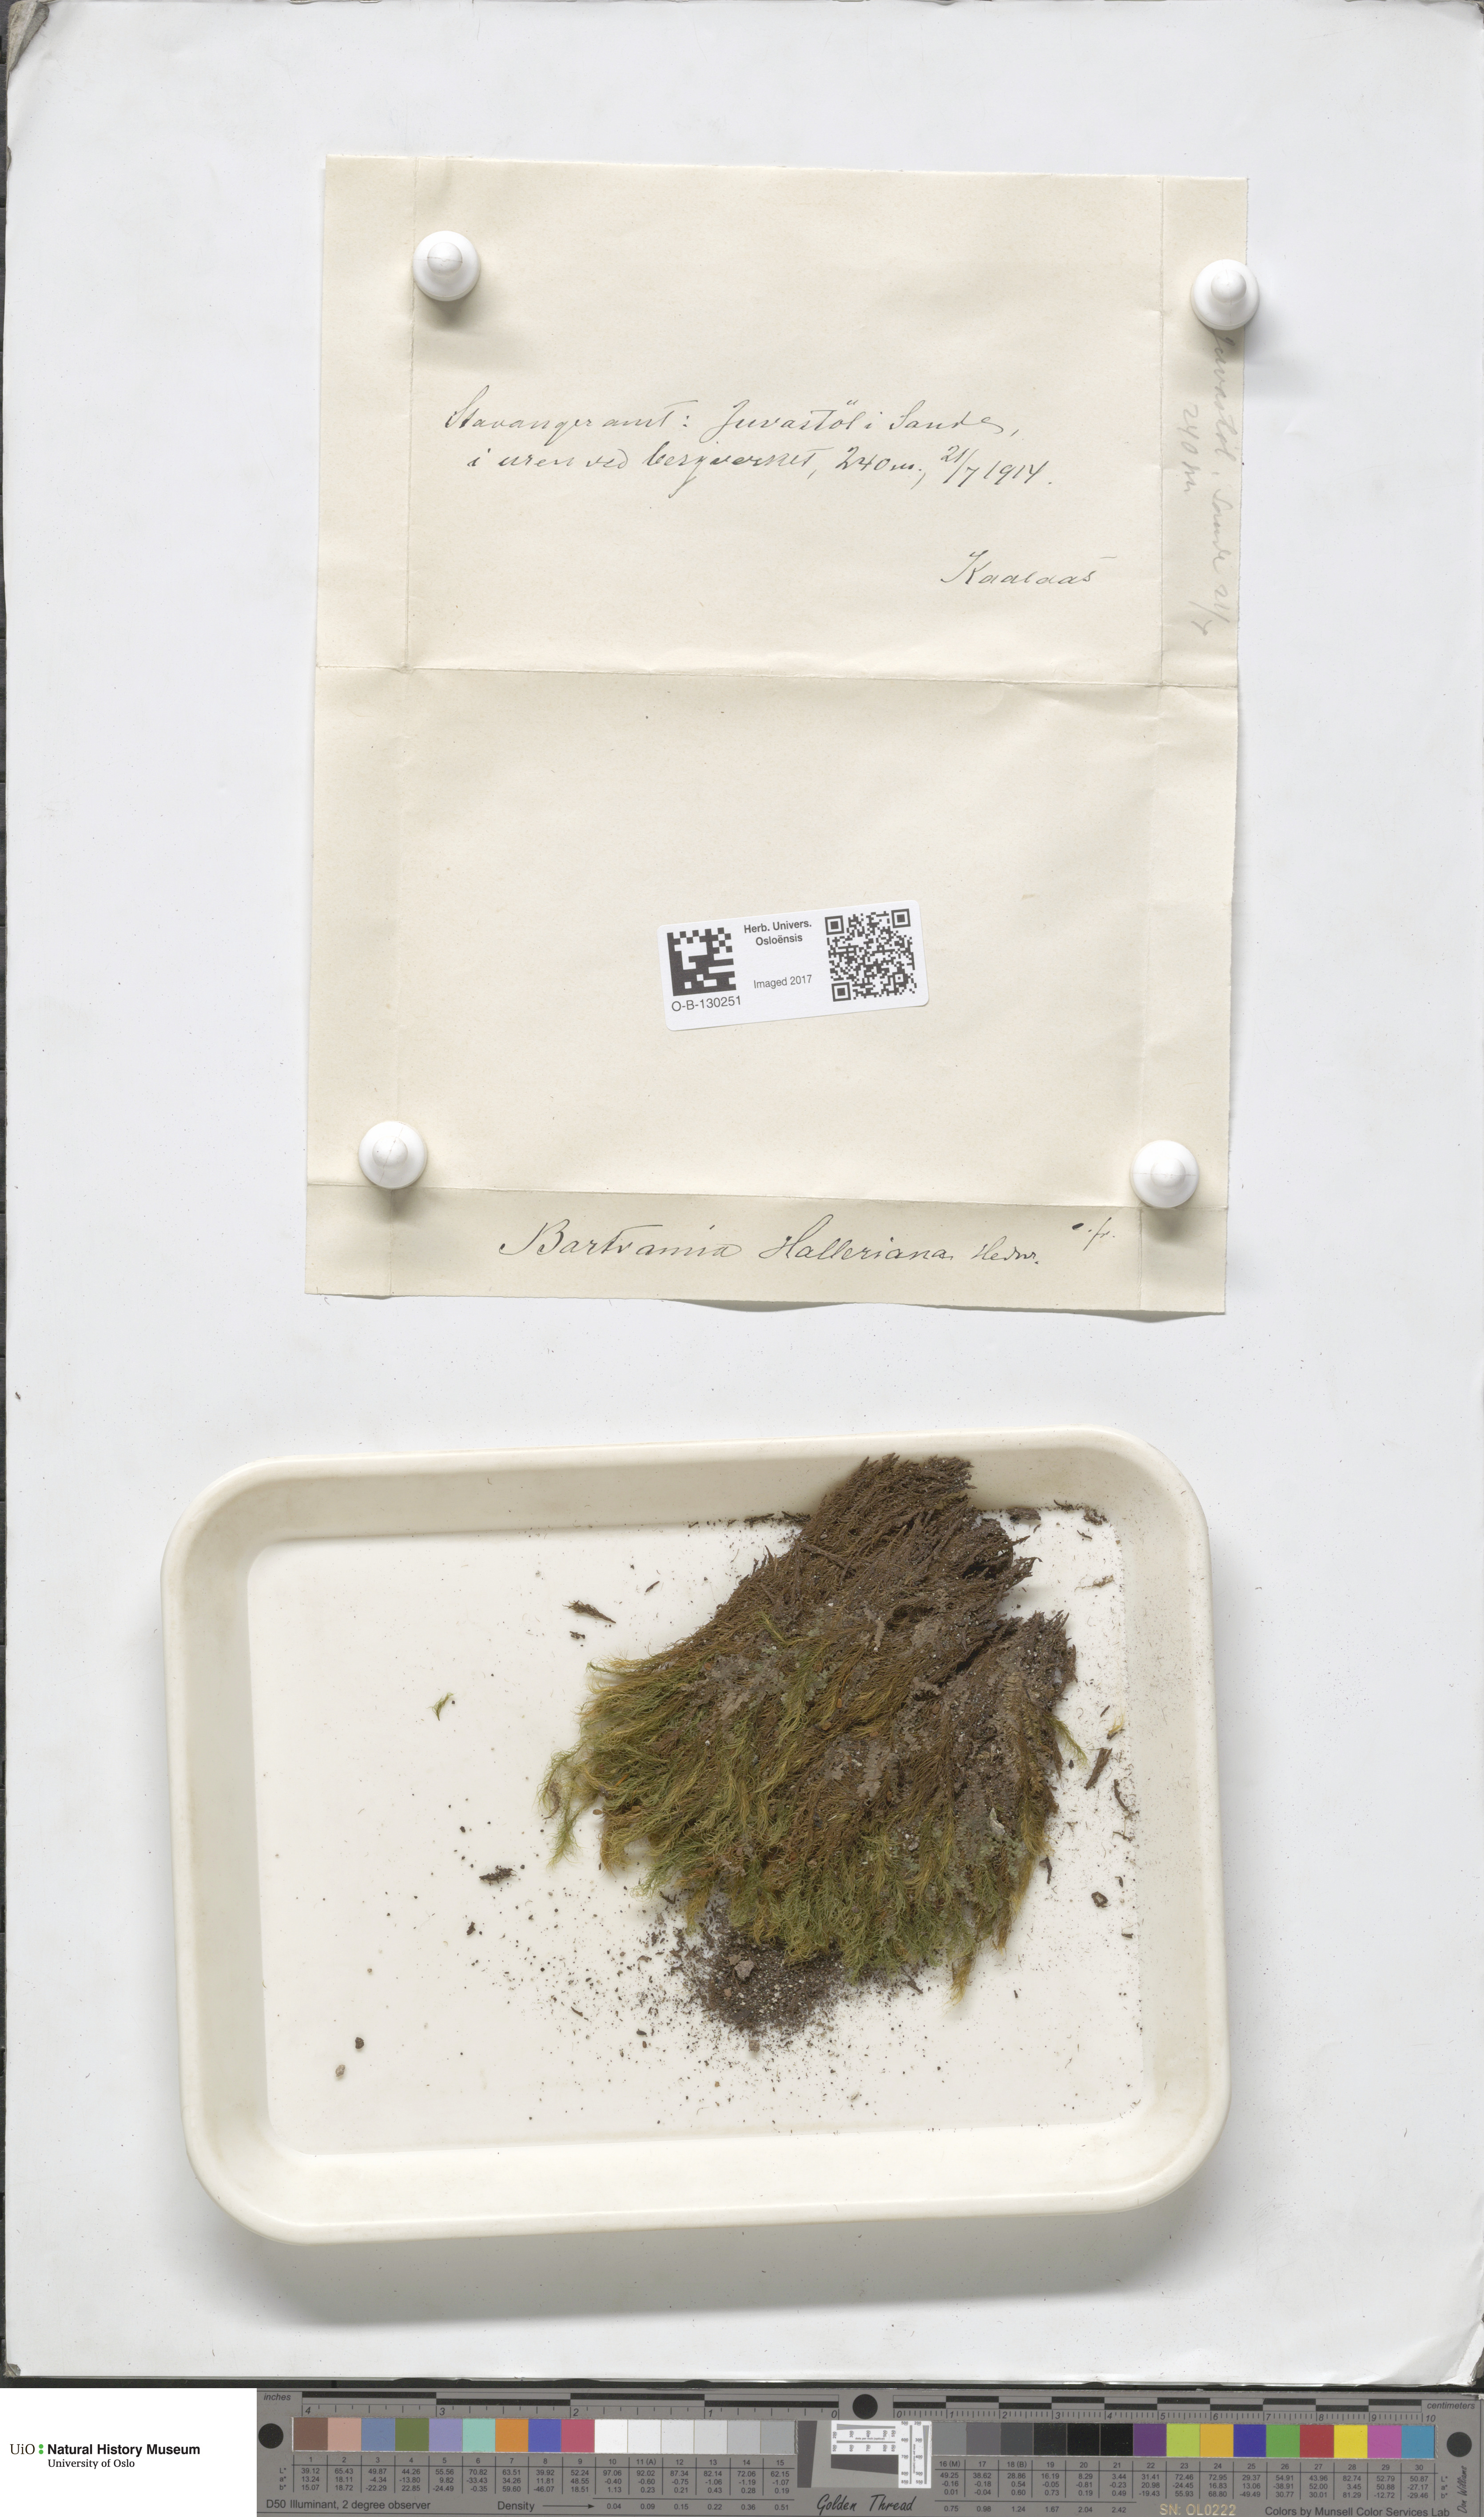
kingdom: Plantae
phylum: Bryophyta
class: Bryopsida
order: Bartramiales
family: Bartramiaceae
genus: Bartramia
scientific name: Bartramia halleriana
